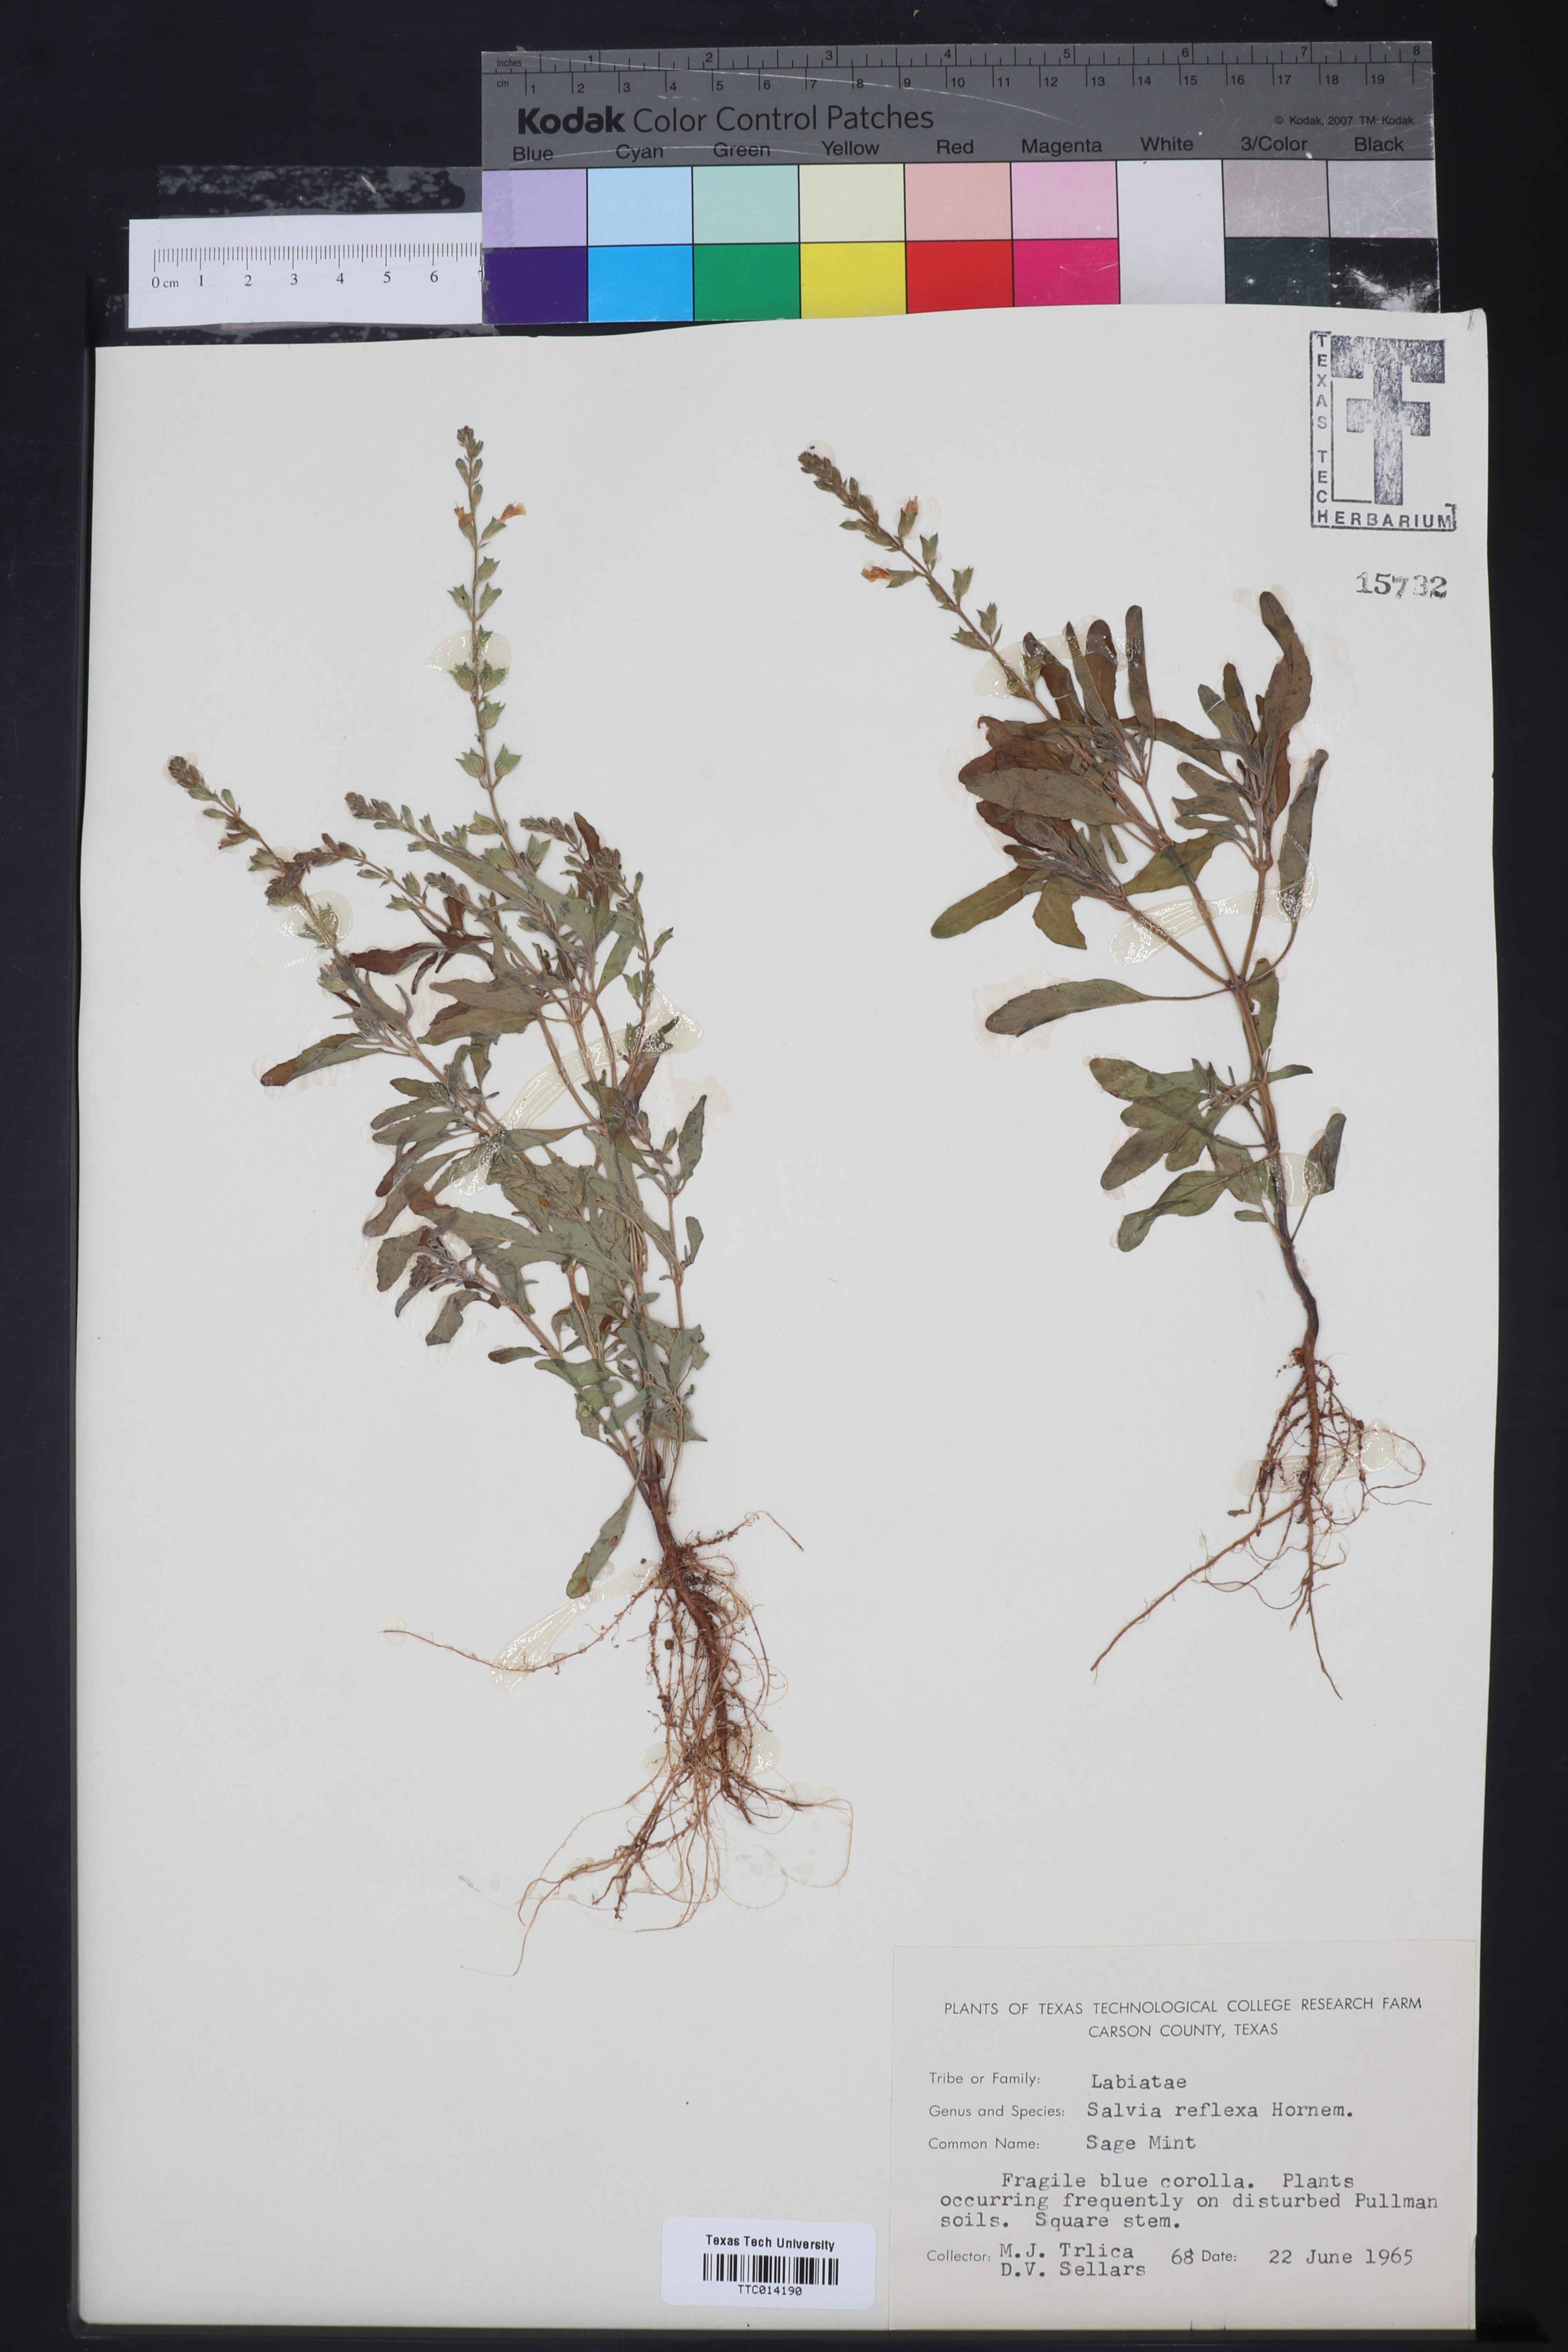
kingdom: Plantae
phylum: Tracheophyta
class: Magnoliopsida
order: Lamiales
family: Lamiaceae
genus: Salvia
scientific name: Salvia reflexa
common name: Mintweed
